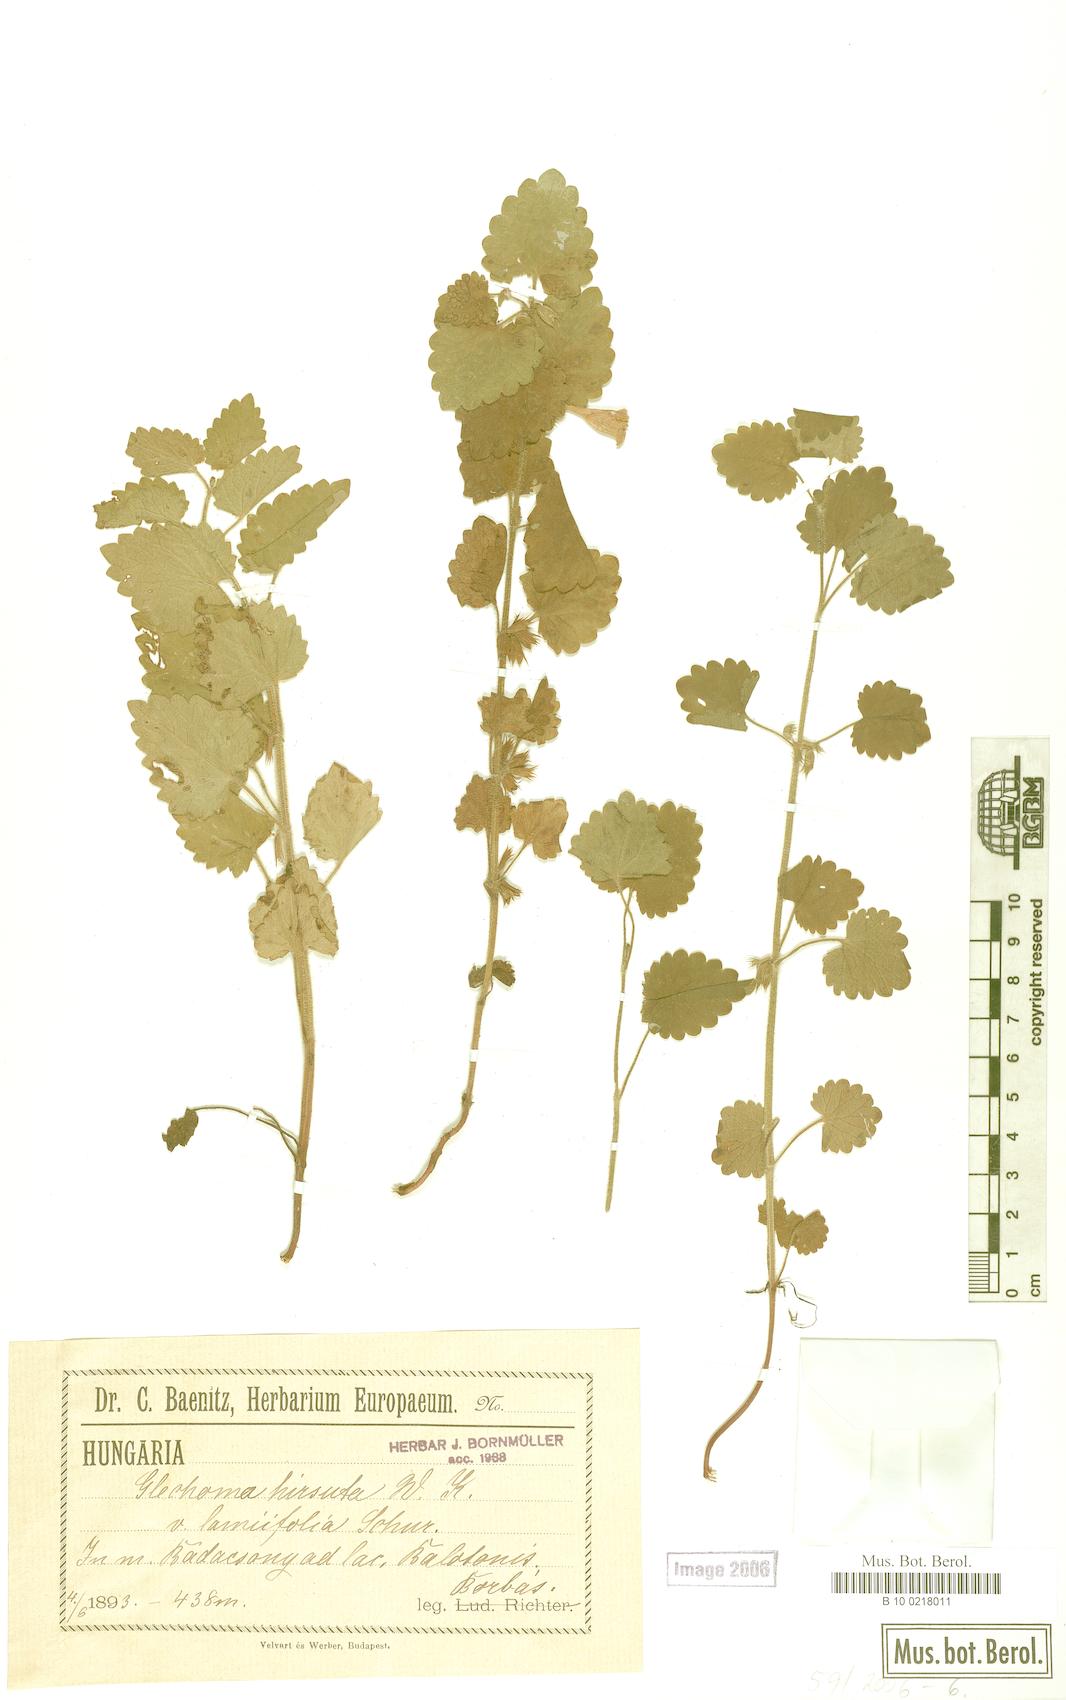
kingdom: Plantae
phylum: Tracheophyta
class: Magnoliopsida
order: Lamiales
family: Lamiaceae
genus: Glechoma
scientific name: Glechoma hirsuta
